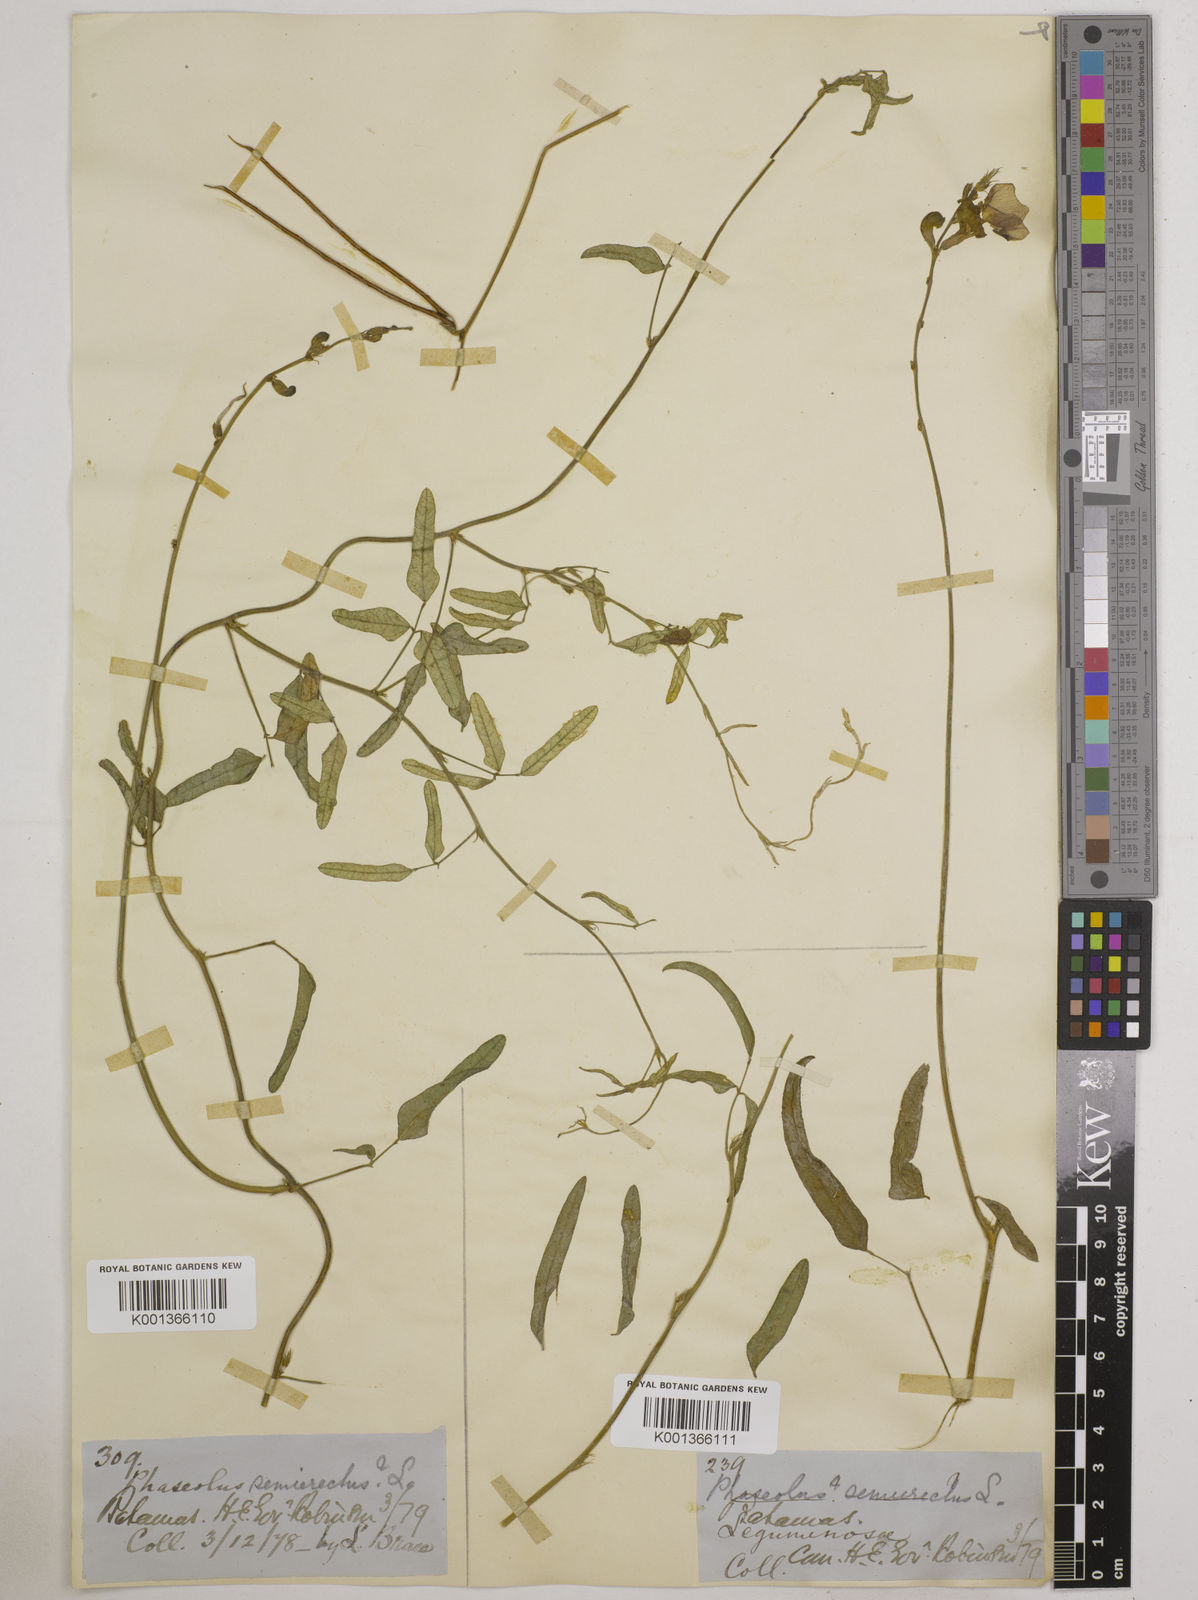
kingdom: Plantae
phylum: Tracheophyta
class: Magnoliopsida
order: Fabales
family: Fabaceae
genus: Macroptilium
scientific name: Macroptilium lathyroides
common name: Wild bushbean
